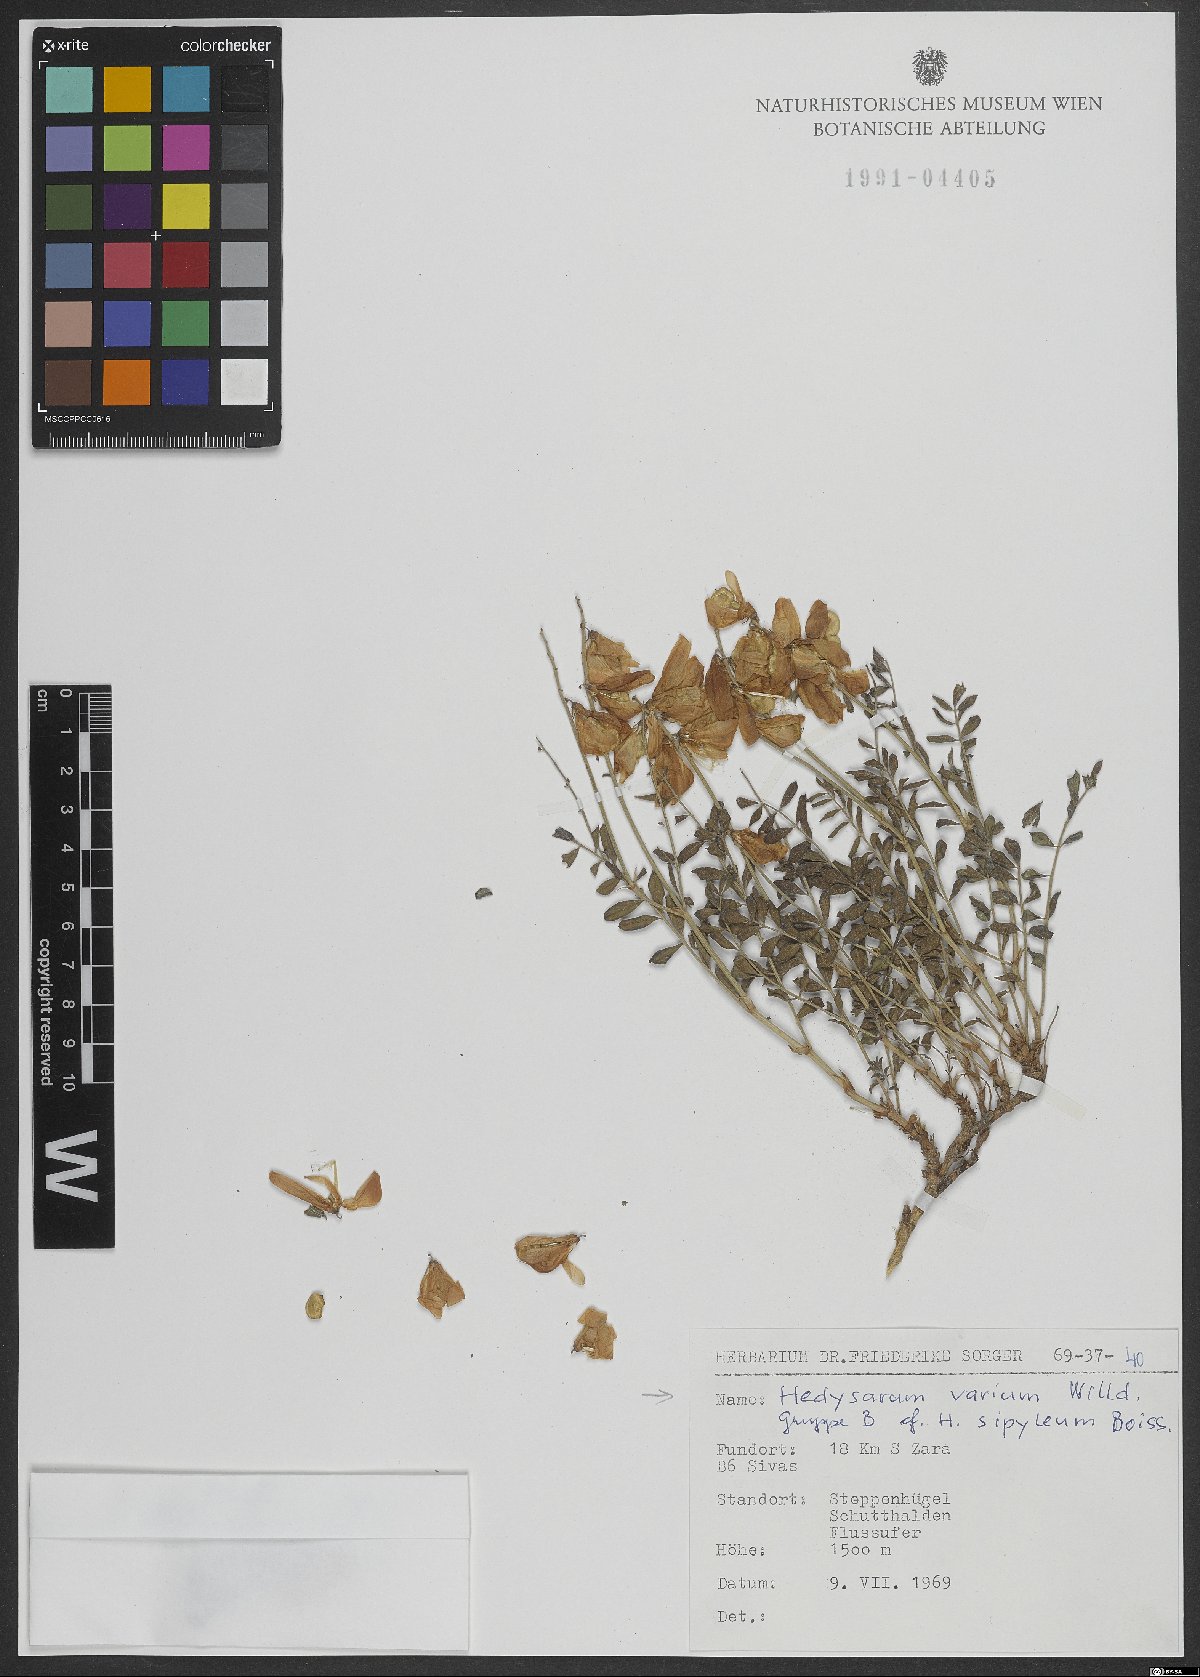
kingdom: Plantae
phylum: Tracheophyta
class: Magnoliopsida
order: Fabales
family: Fabaceae
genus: Hedysarum
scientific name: Hedysarum varium
